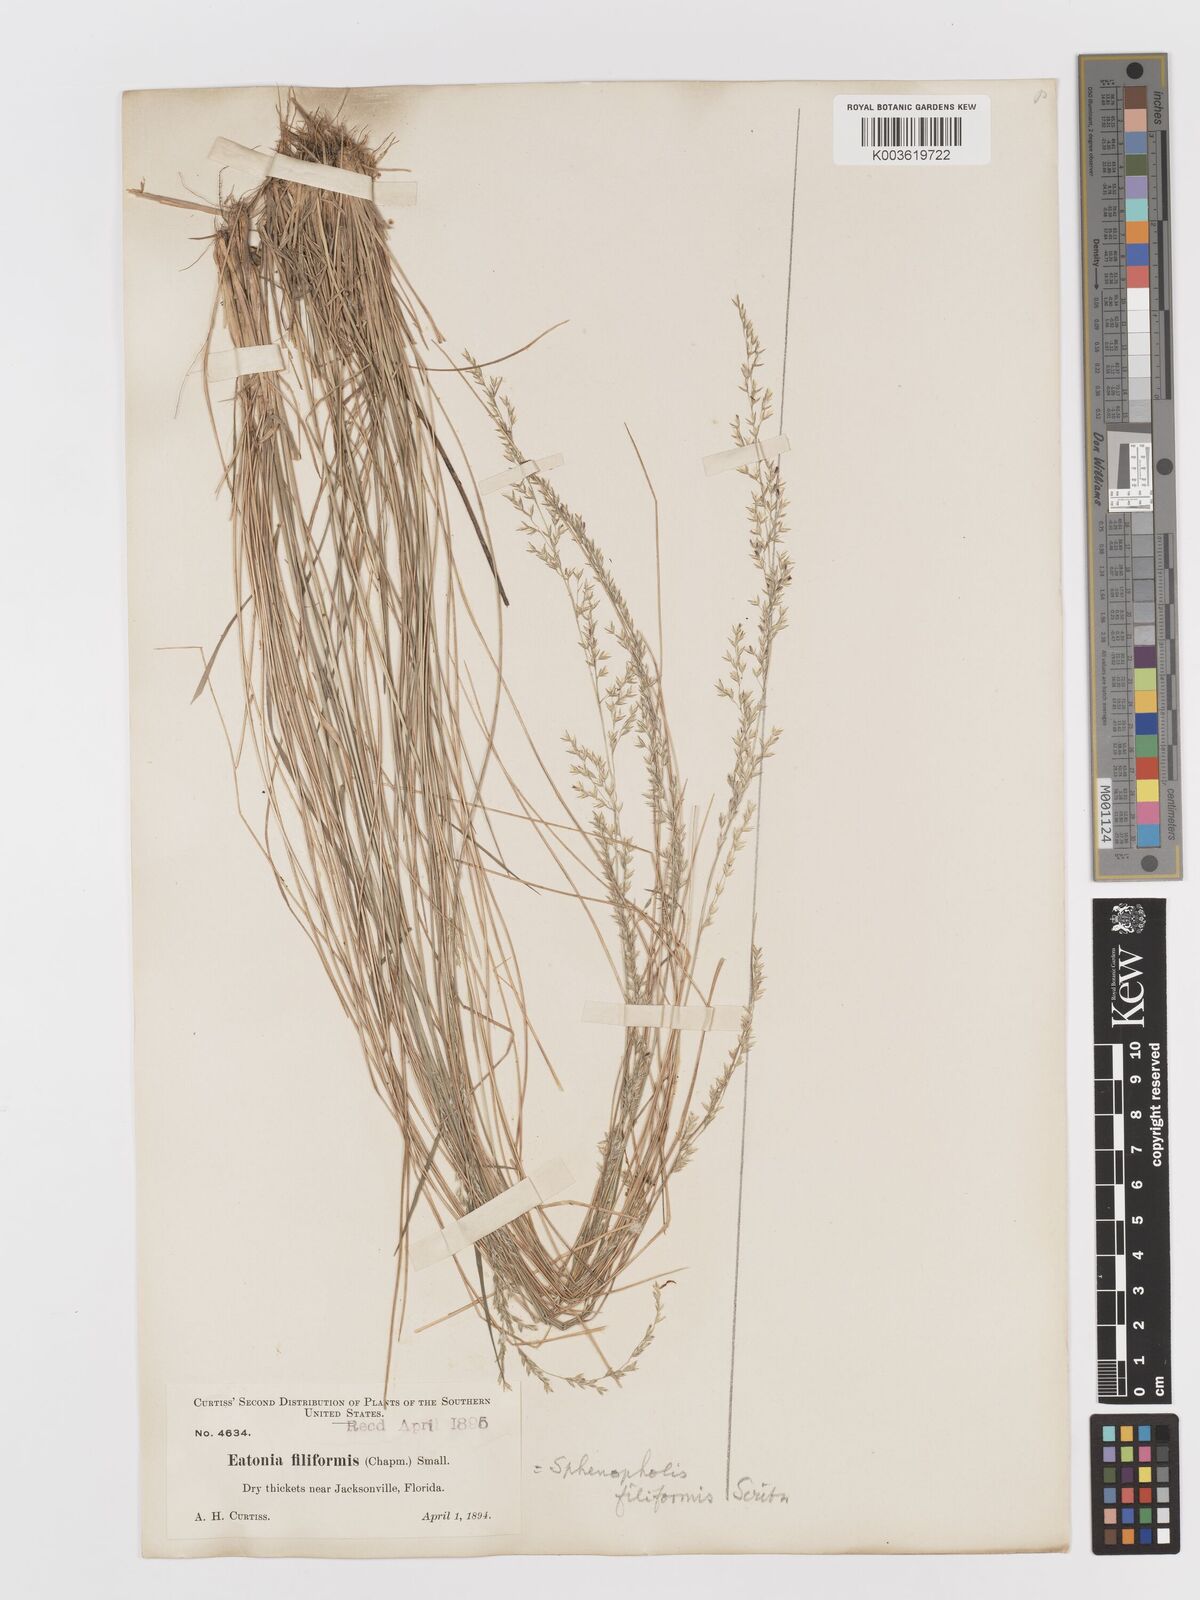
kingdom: Plantae
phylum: Tracheophyta
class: Liliopsida
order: Poales
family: Poaceae
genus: Sphenopholis
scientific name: Sphenopholis filiformis
